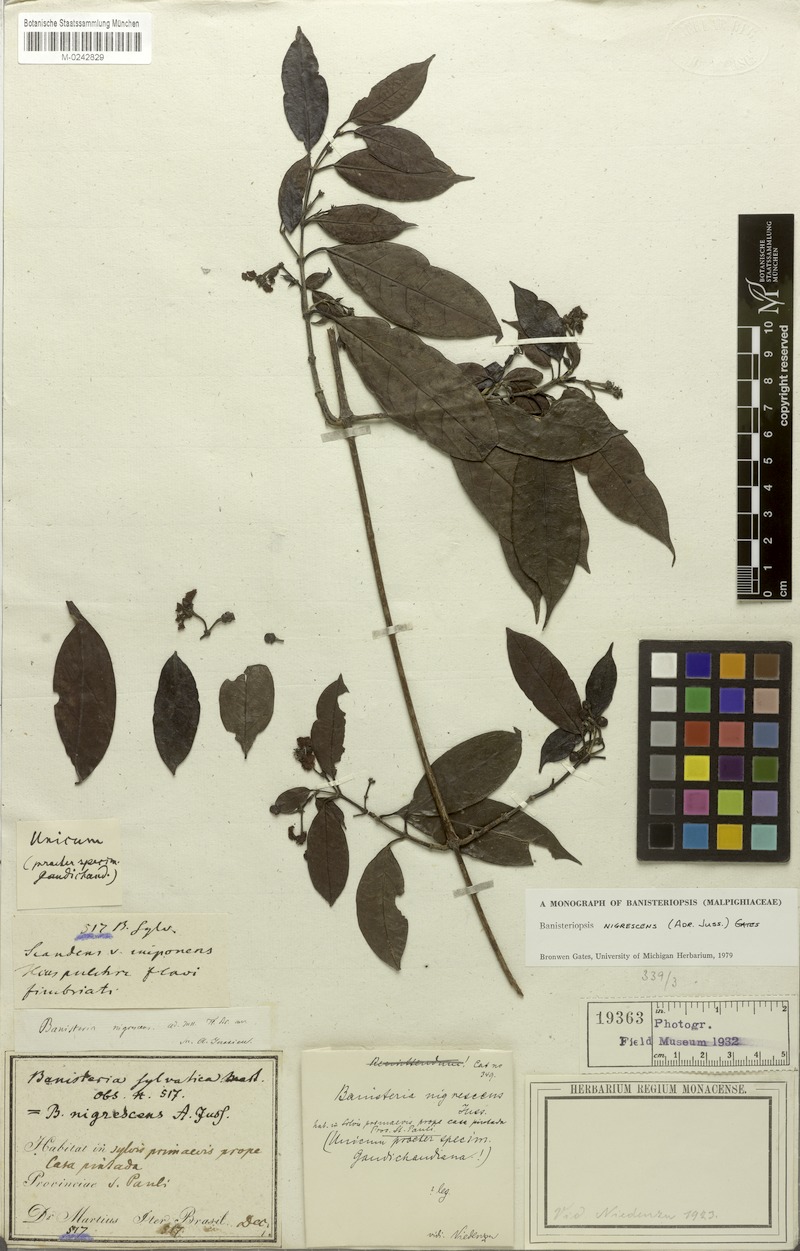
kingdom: Plantae
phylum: Tracheophyta
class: Magnoliopsida
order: Malpighiales
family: Malpighiaceae
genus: Diplopterys
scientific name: Diplopterys nigrescens
